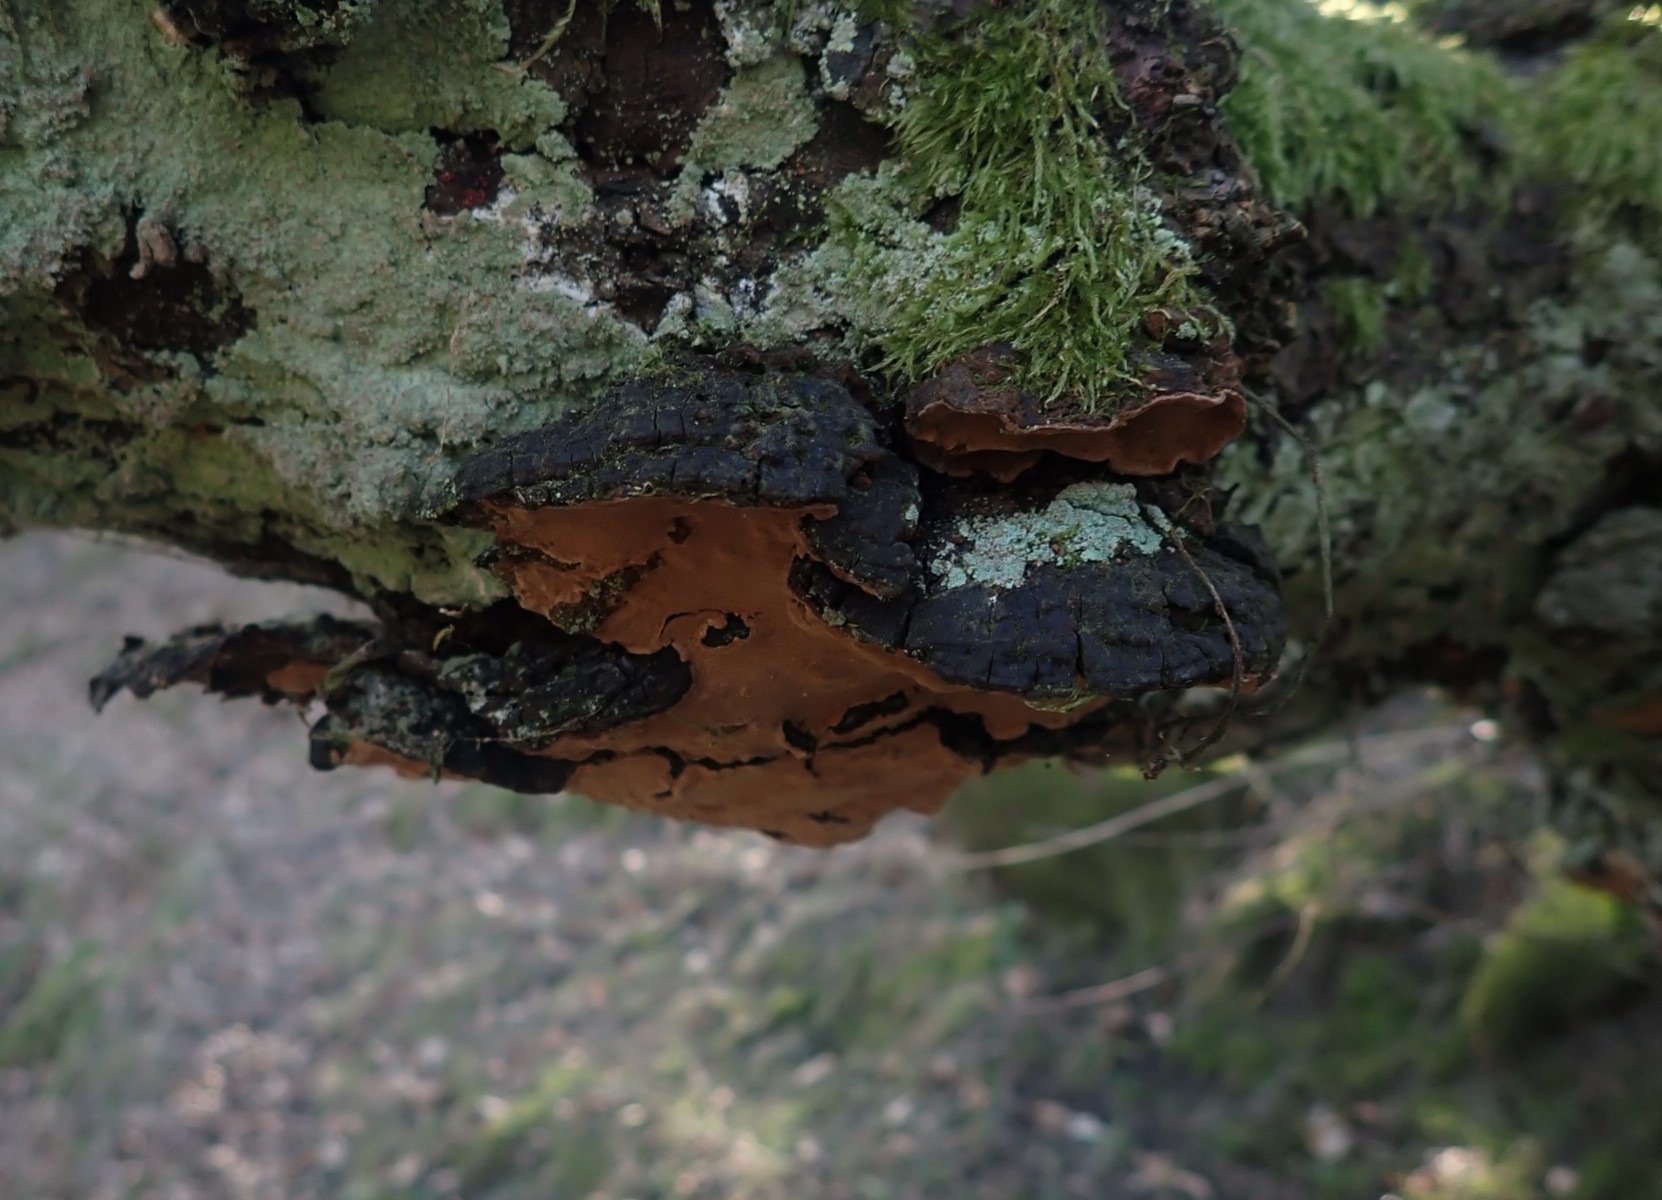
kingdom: Fungi
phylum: Basidiomycota
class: Agaricomycetes
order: Hymenochaetales
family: Hymenochaetaceae
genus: Phellinopsis
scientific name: Phellinopsis conchata
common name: pile-ildporesvamp
